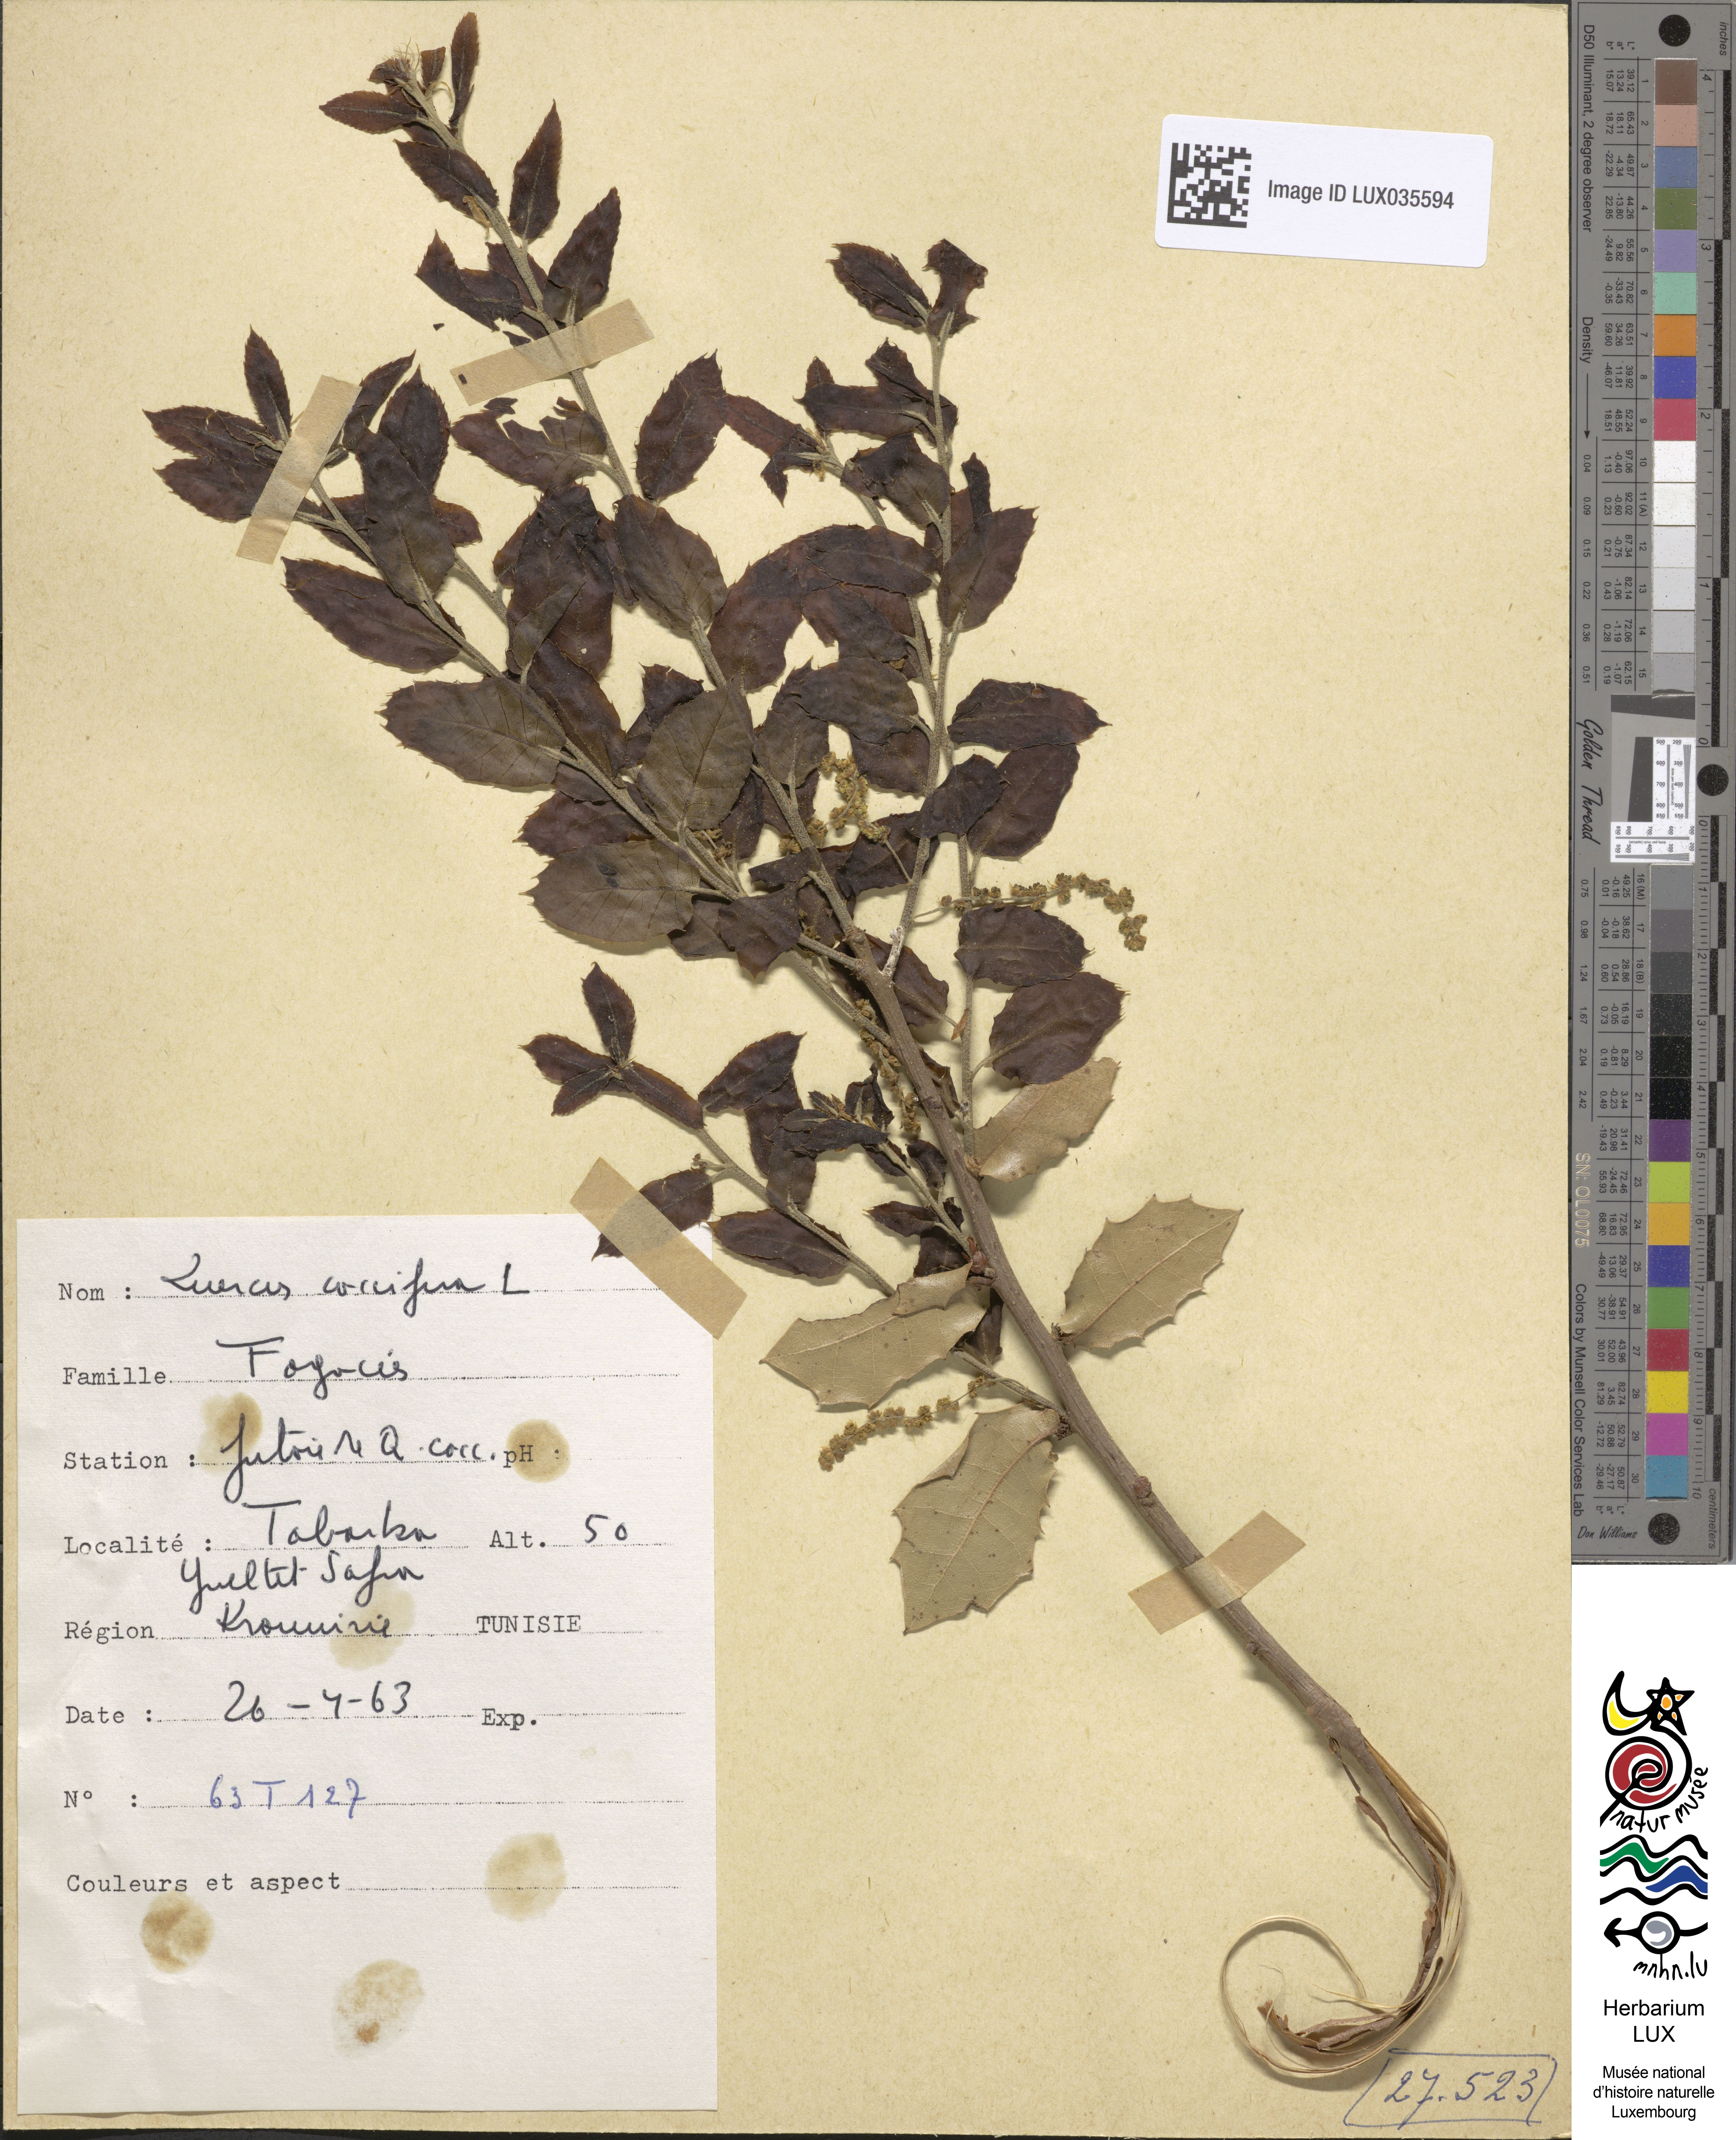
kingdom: Plantae
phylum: Tracheophyta
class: Magnoliopsida
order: Fagales
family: Fagaceae
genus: Quercus
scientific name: Quercus coccifera
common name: Kermes oak
